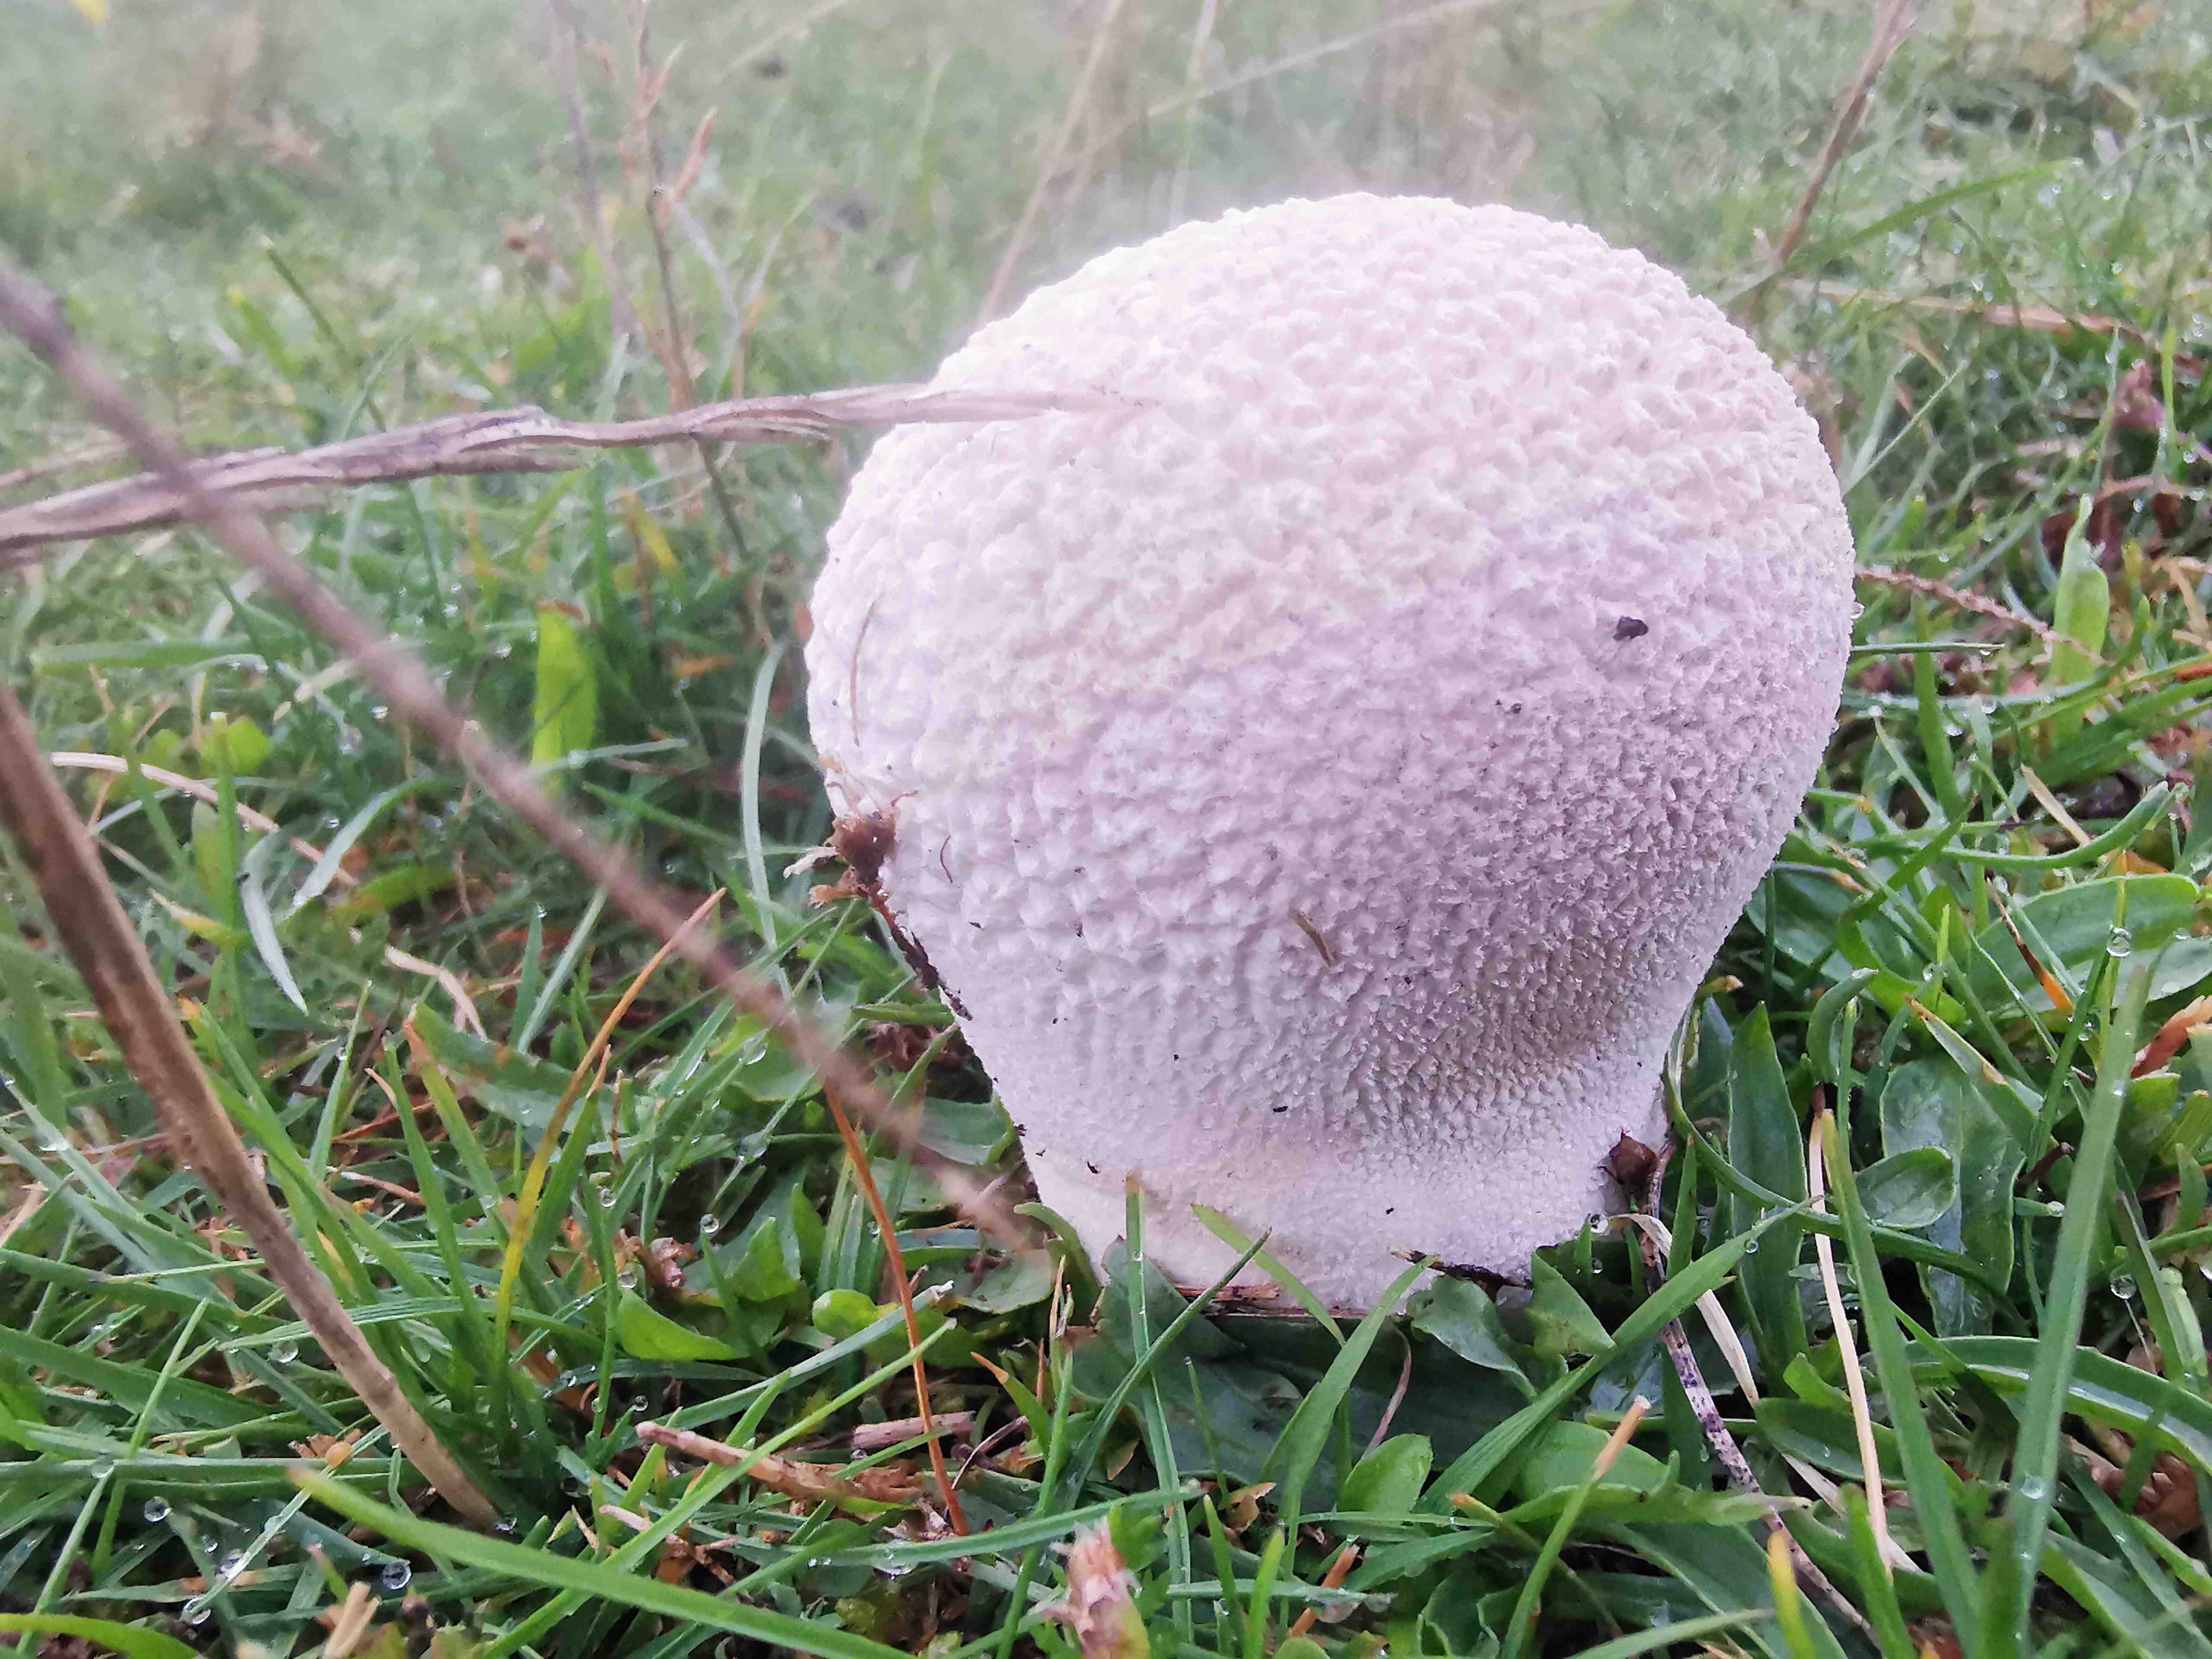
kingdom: Fungi
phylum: Basidiomycota
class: Agaricomycetes
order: Agaricales
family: Lycoperdaceae
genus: Bovistella
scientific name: Bovistella utriformis
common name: skællet støvbold
